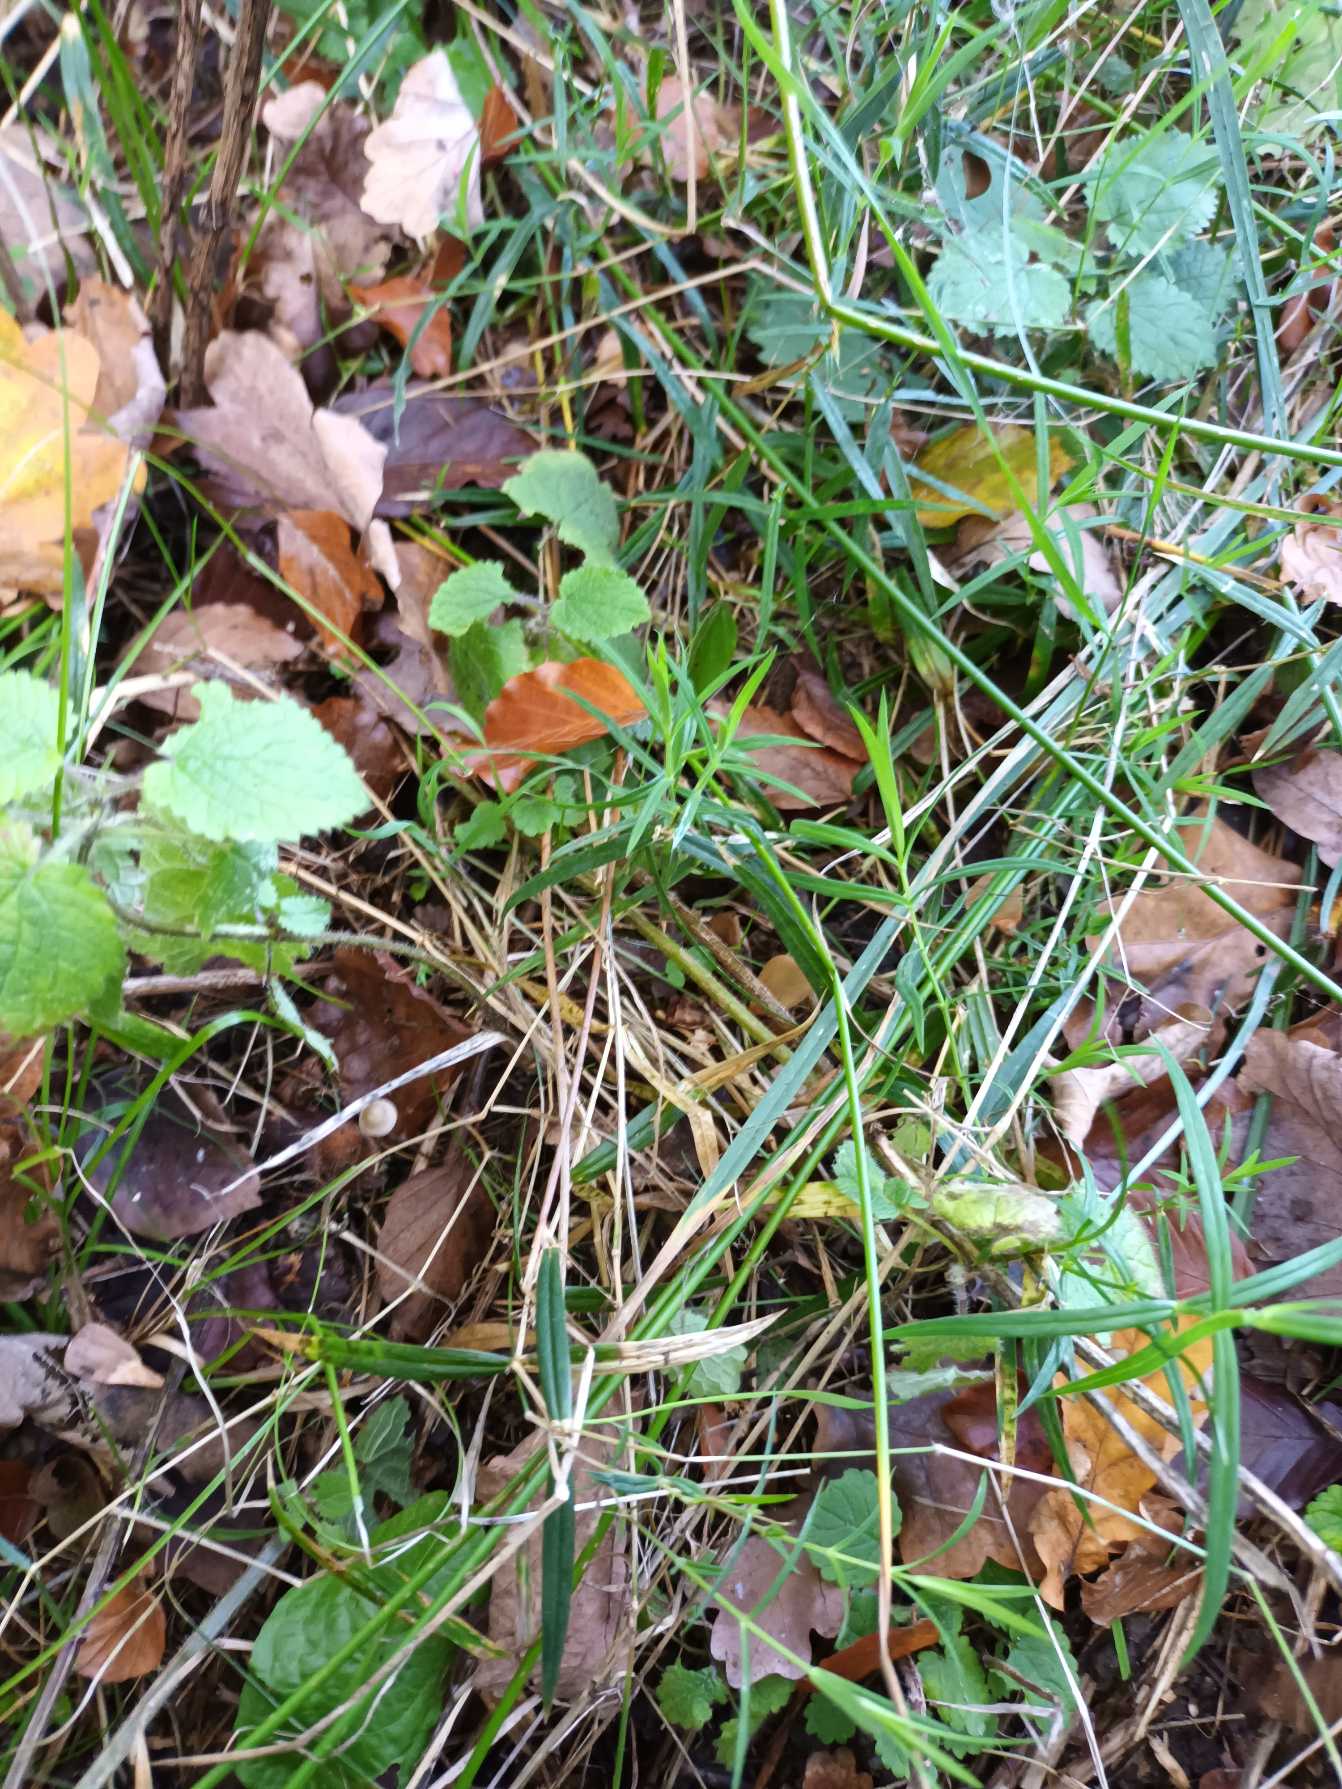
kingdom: Plantae
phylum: Tracheophyta
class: Magnoliopsida
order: Caryophyllales
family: Caryophyllaceae
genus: Rabelera
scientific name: Rabelera holostea
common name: Stor fladstjerne
